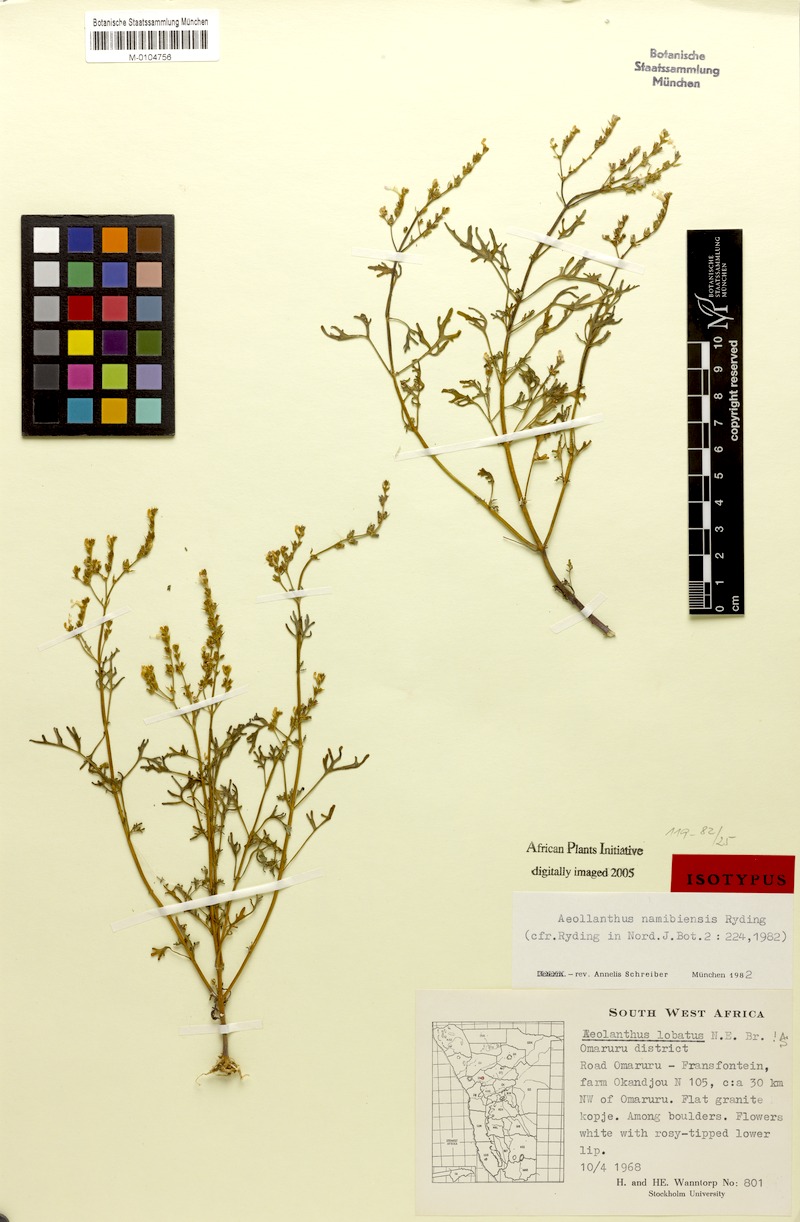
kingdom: Plantae
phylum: Tracheophyta
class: Magnoliopsida
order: Lamiales
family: Lamiaceae
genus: Aeollanthus
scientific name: Aeollanthus namibiensis
